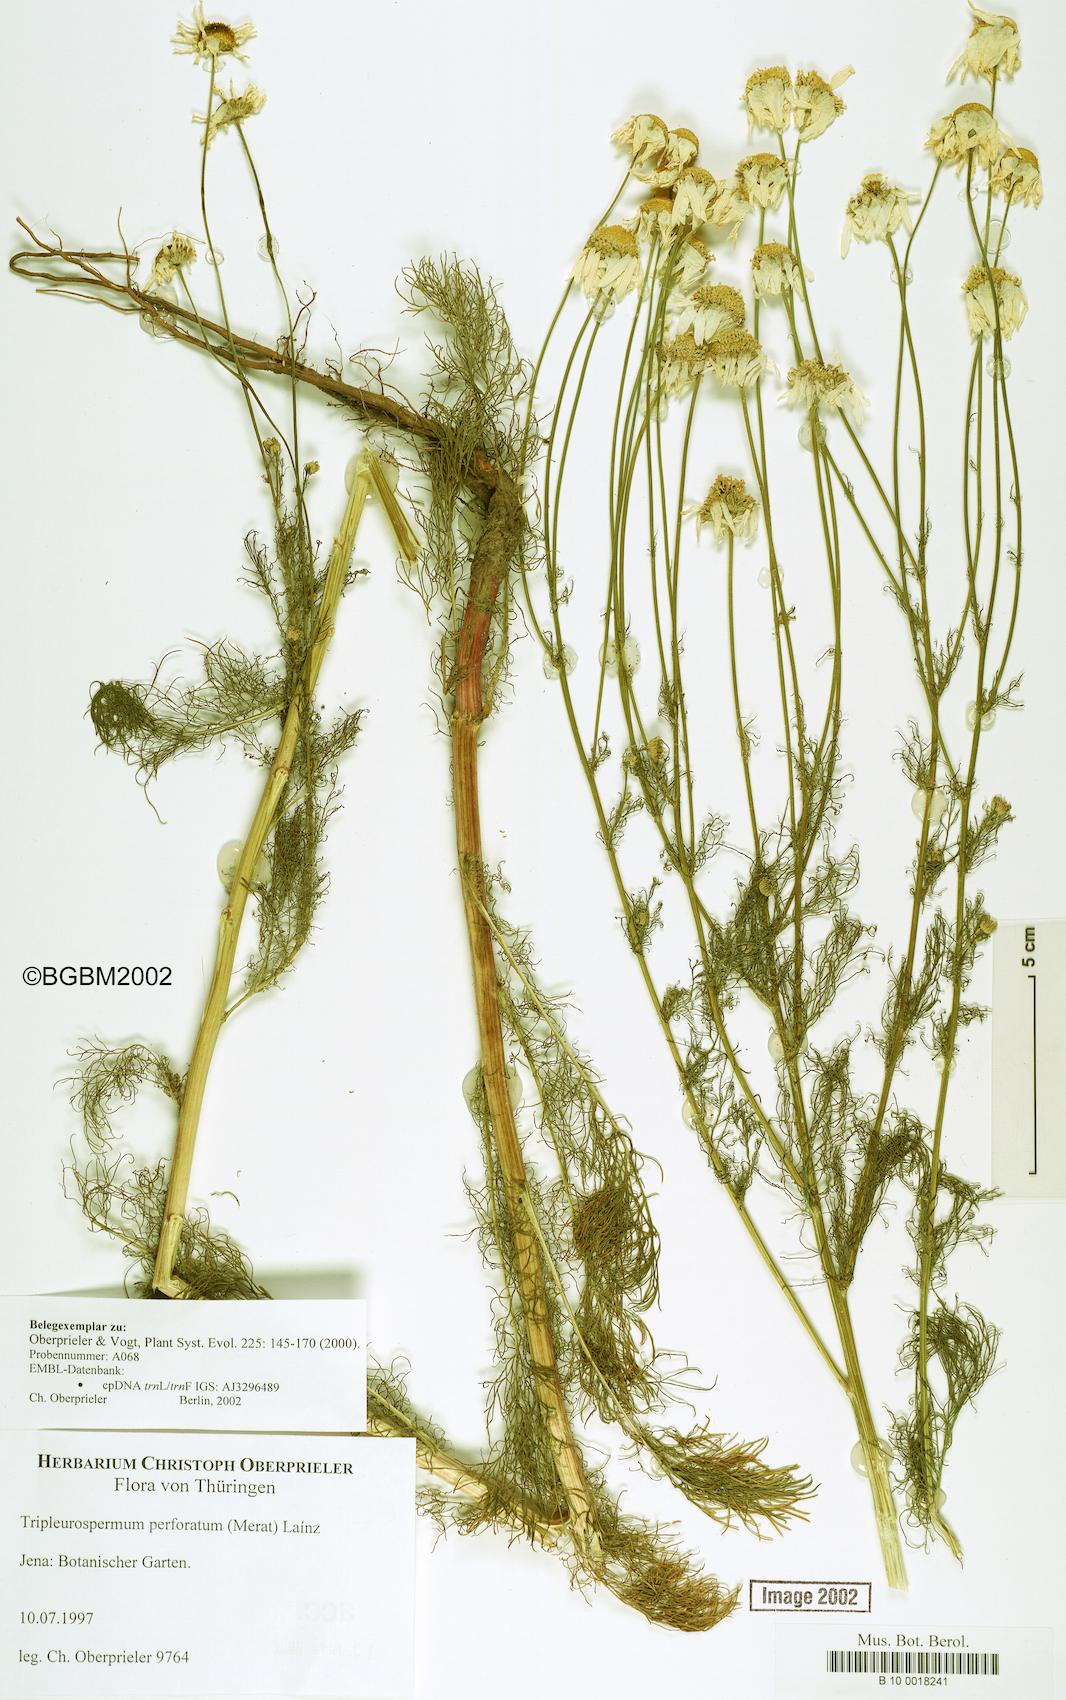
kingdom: Plantae
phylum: Tracheophyta
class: Magnoliopsida
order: Asterales
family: Asteraceae
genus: Tripleurospermum
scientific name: Tripleurospermum inodorum
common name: Scentless mayweed
